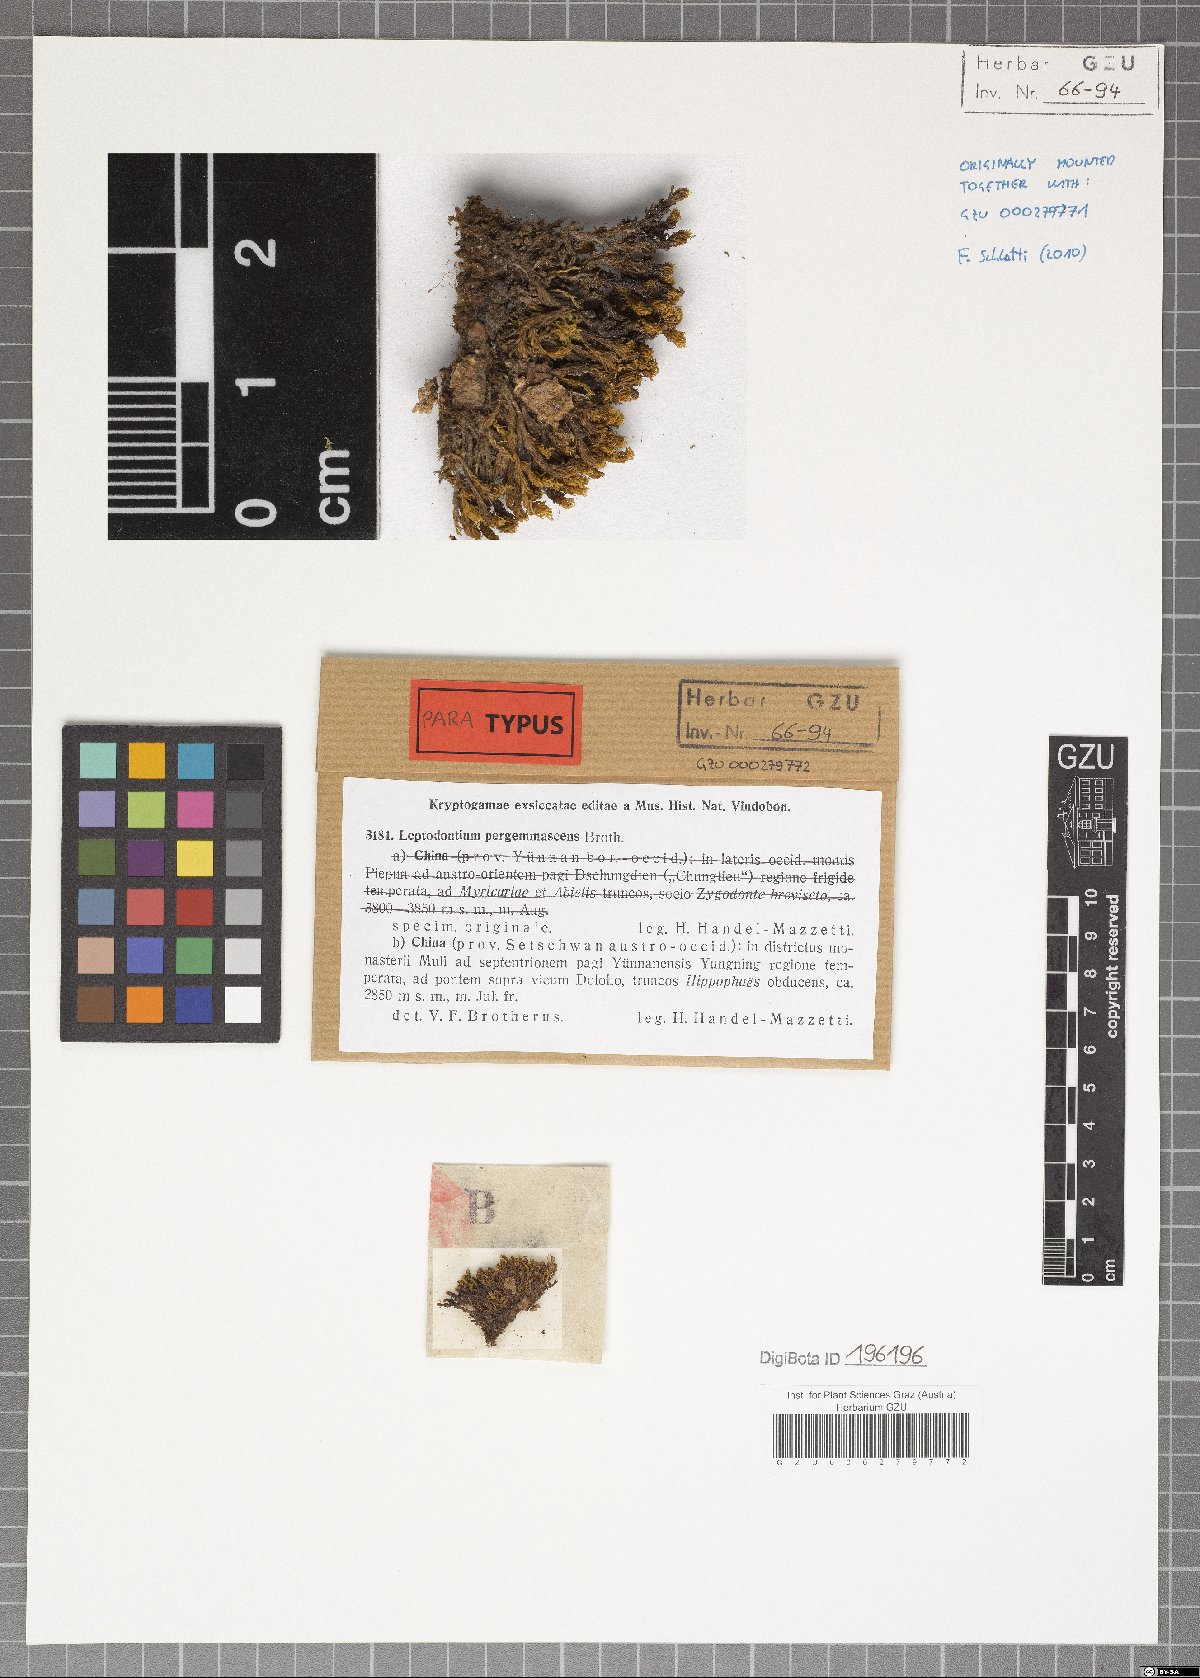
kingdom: Plantae
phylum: Bryophyta
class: Bryopsida
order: Pottiales
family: Pottiaceae
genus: Leptodontium
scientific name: Leptodontium flexifolium
